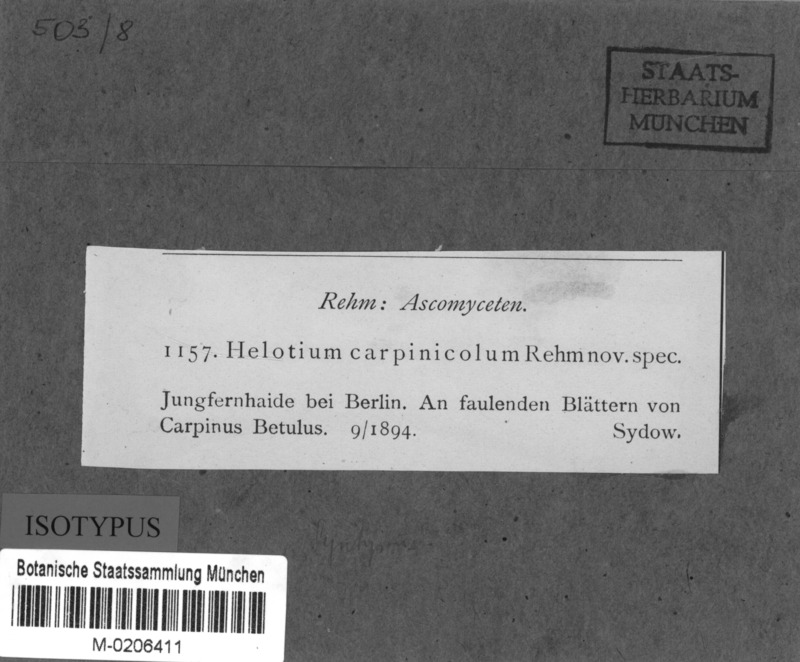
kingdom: Fungi
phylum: Ascomycota
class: Leotiomycetes
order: Helotiales
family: Helotiaceae
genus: Hymenoscyphus
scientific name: Hymenoscyphus carpinicola
